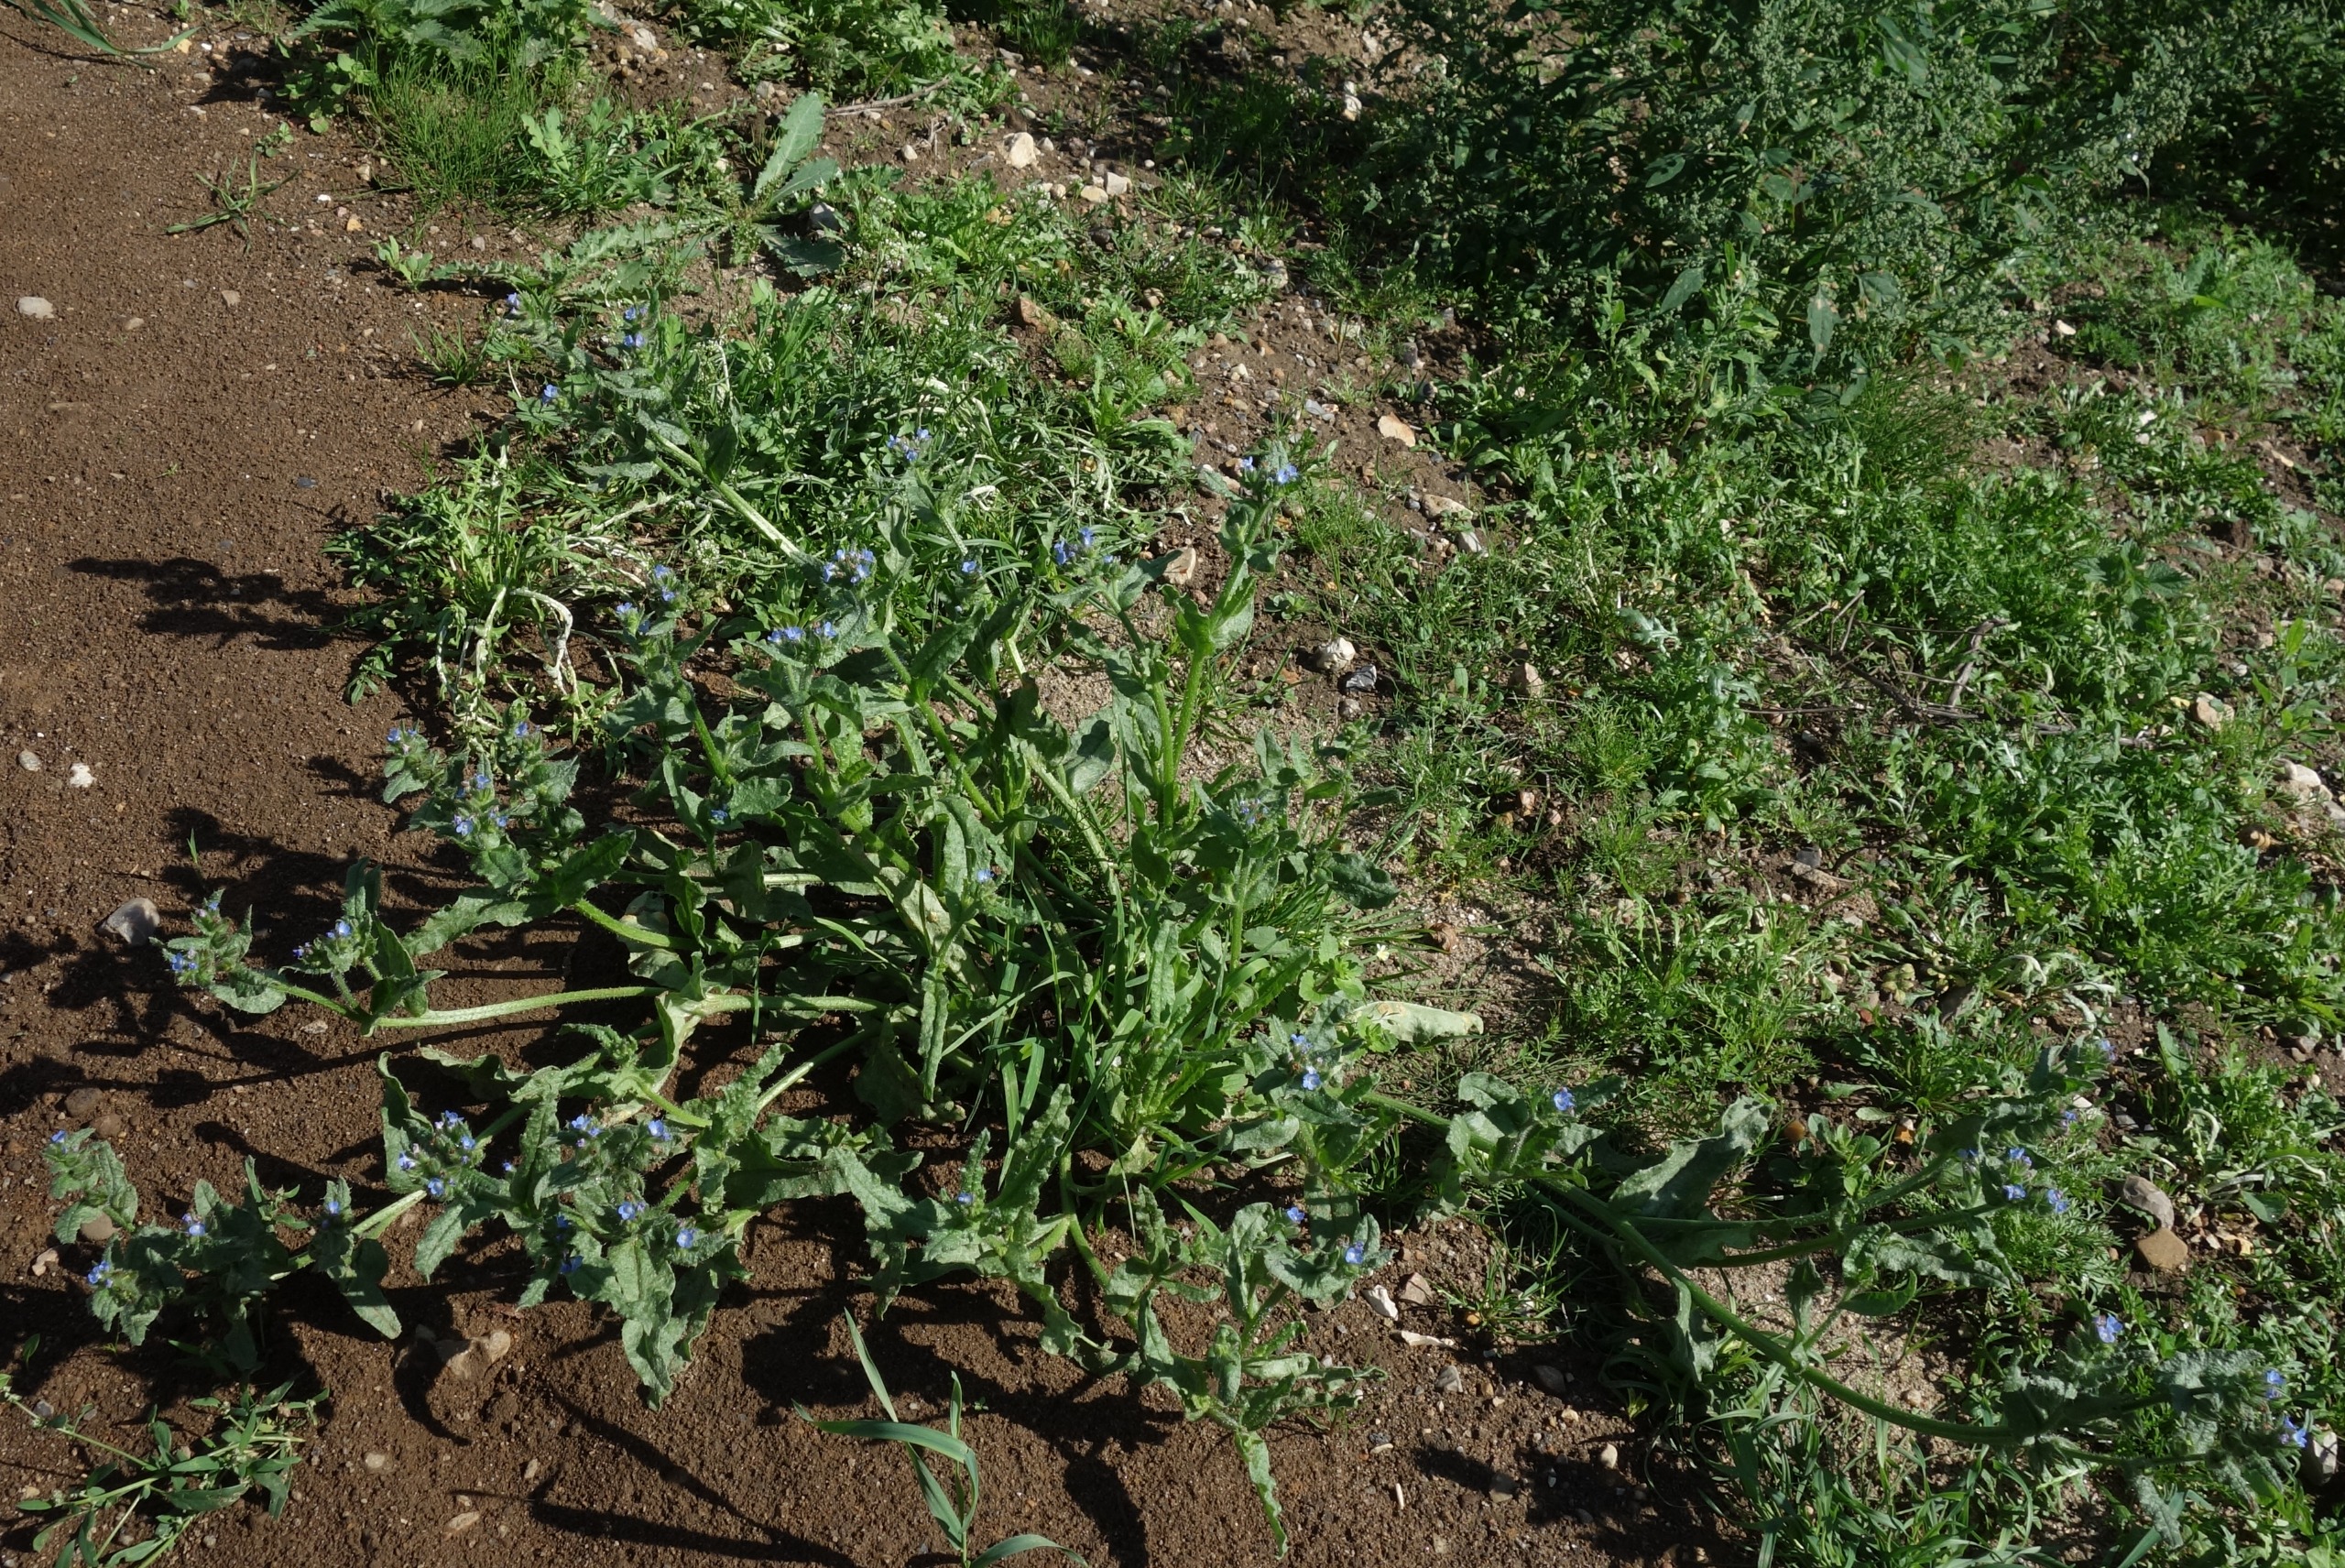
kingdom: Plantae
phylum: Tracheophyta
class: Magnoliopsida
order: Boraginales
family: Boraginaceae
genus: Lycopsis
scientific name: Lycopsis arvensis
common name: Krumhals
